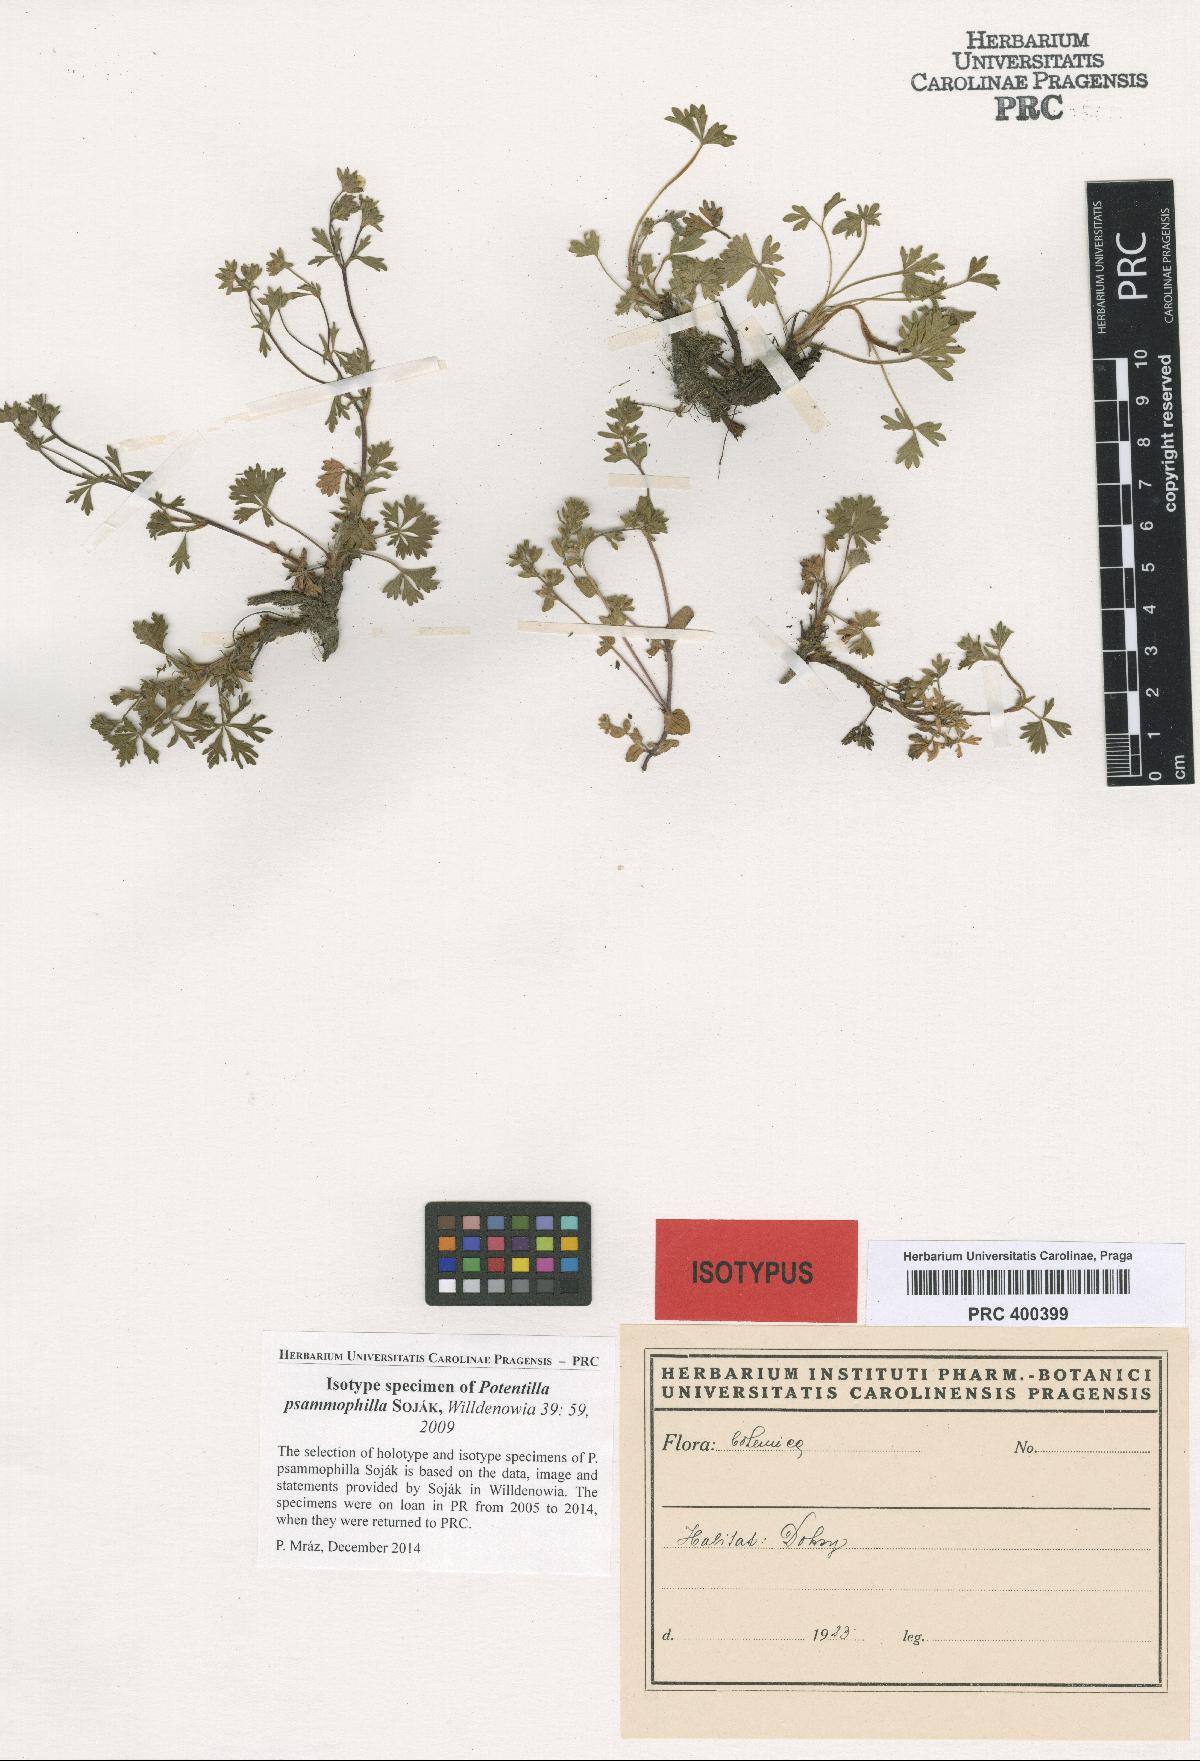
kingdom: Plantae
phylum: Tracheophyta
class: Magnoliopsida
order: Rosales
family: Rosaceae
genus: Potentilla
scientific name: Potentilla psammophila
